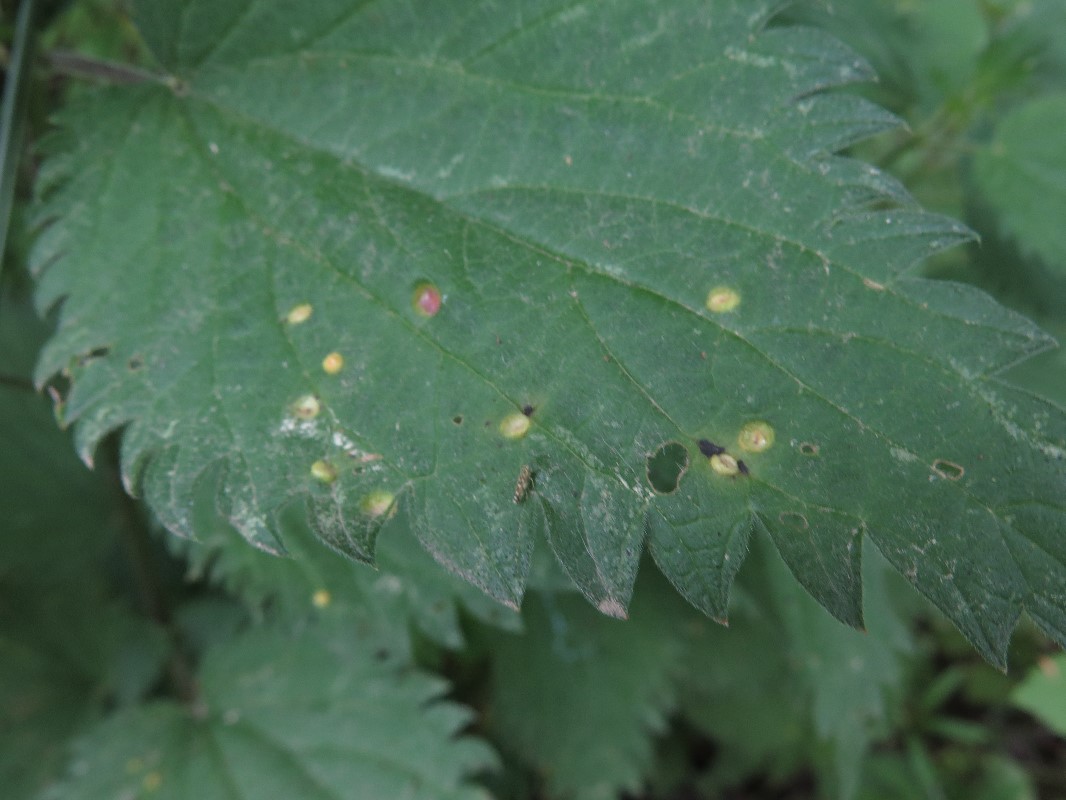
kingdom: Fungi
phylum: Basidiomycota
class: Pucciniomycetes
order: Pucciniales
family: Pucciniaceae
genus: Puccinia
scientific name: Puccinia urticata
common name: nældegalle-tvecellerust
